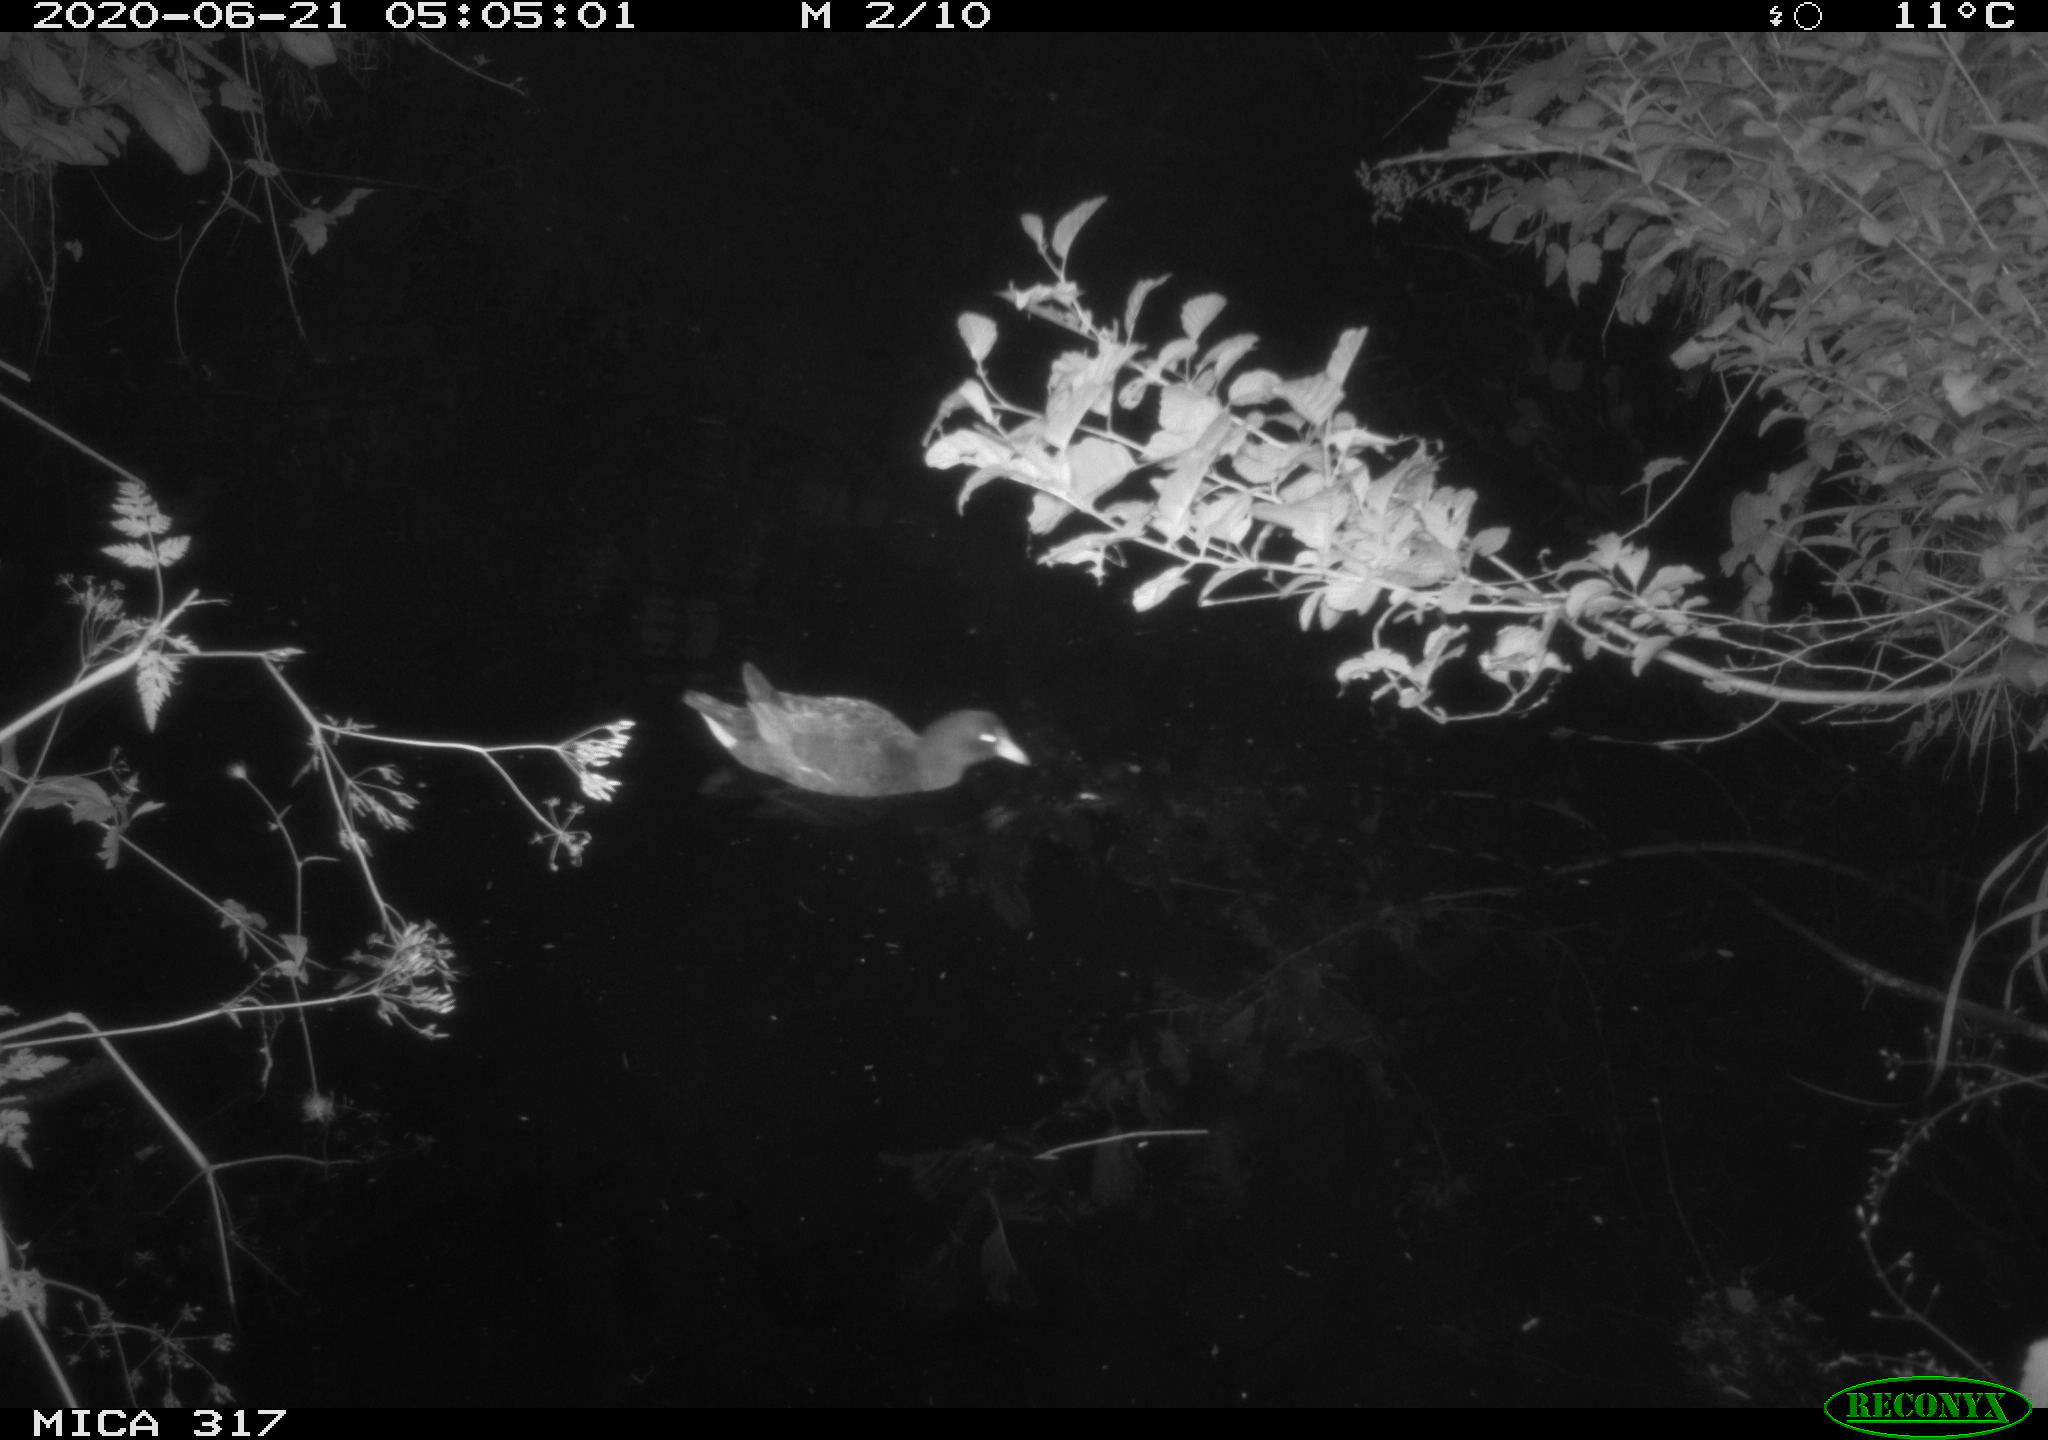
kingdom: Animalia
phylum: Chordata
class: Aves
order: Gruiformes
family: Rallidae
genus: Gallinula
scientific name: Gallinula chloropus
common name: Common moorhen
